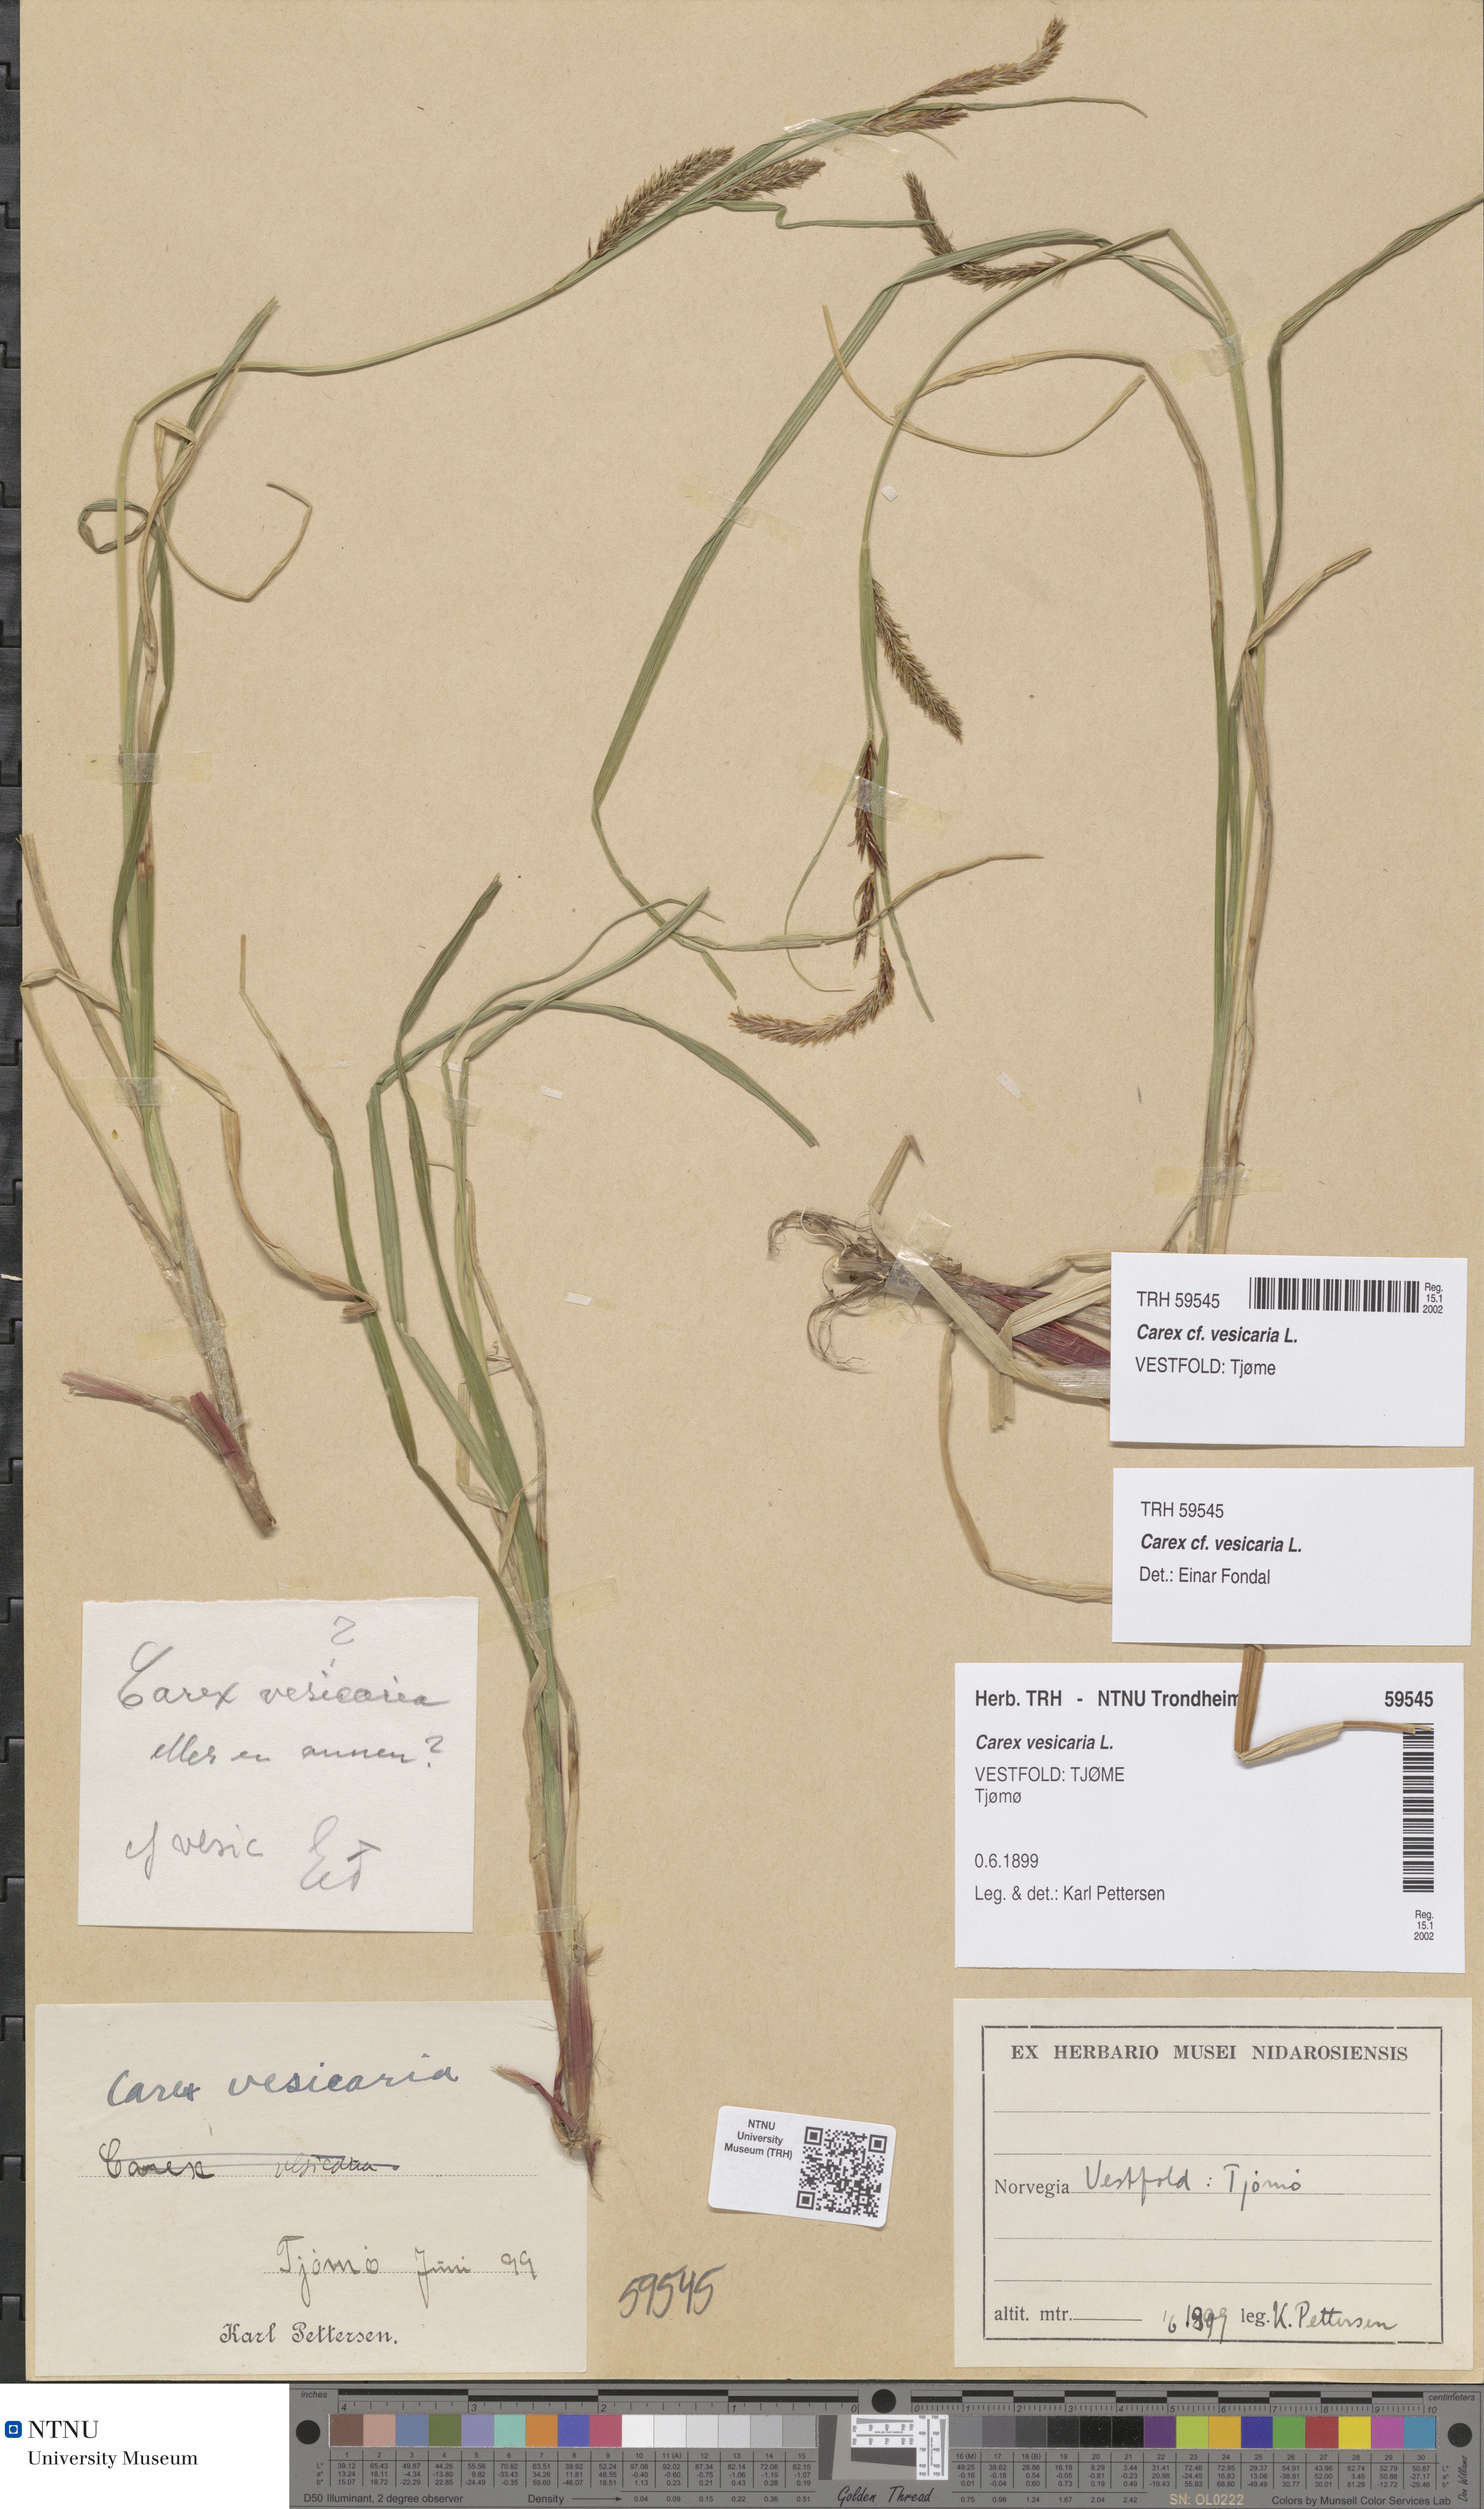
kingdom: Plantae
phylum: Tracheophyta
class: Liliopsida
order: Poales
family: Cyperaceae
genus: Carex
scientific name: Carex vesicaria
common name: Bladder-sedge
